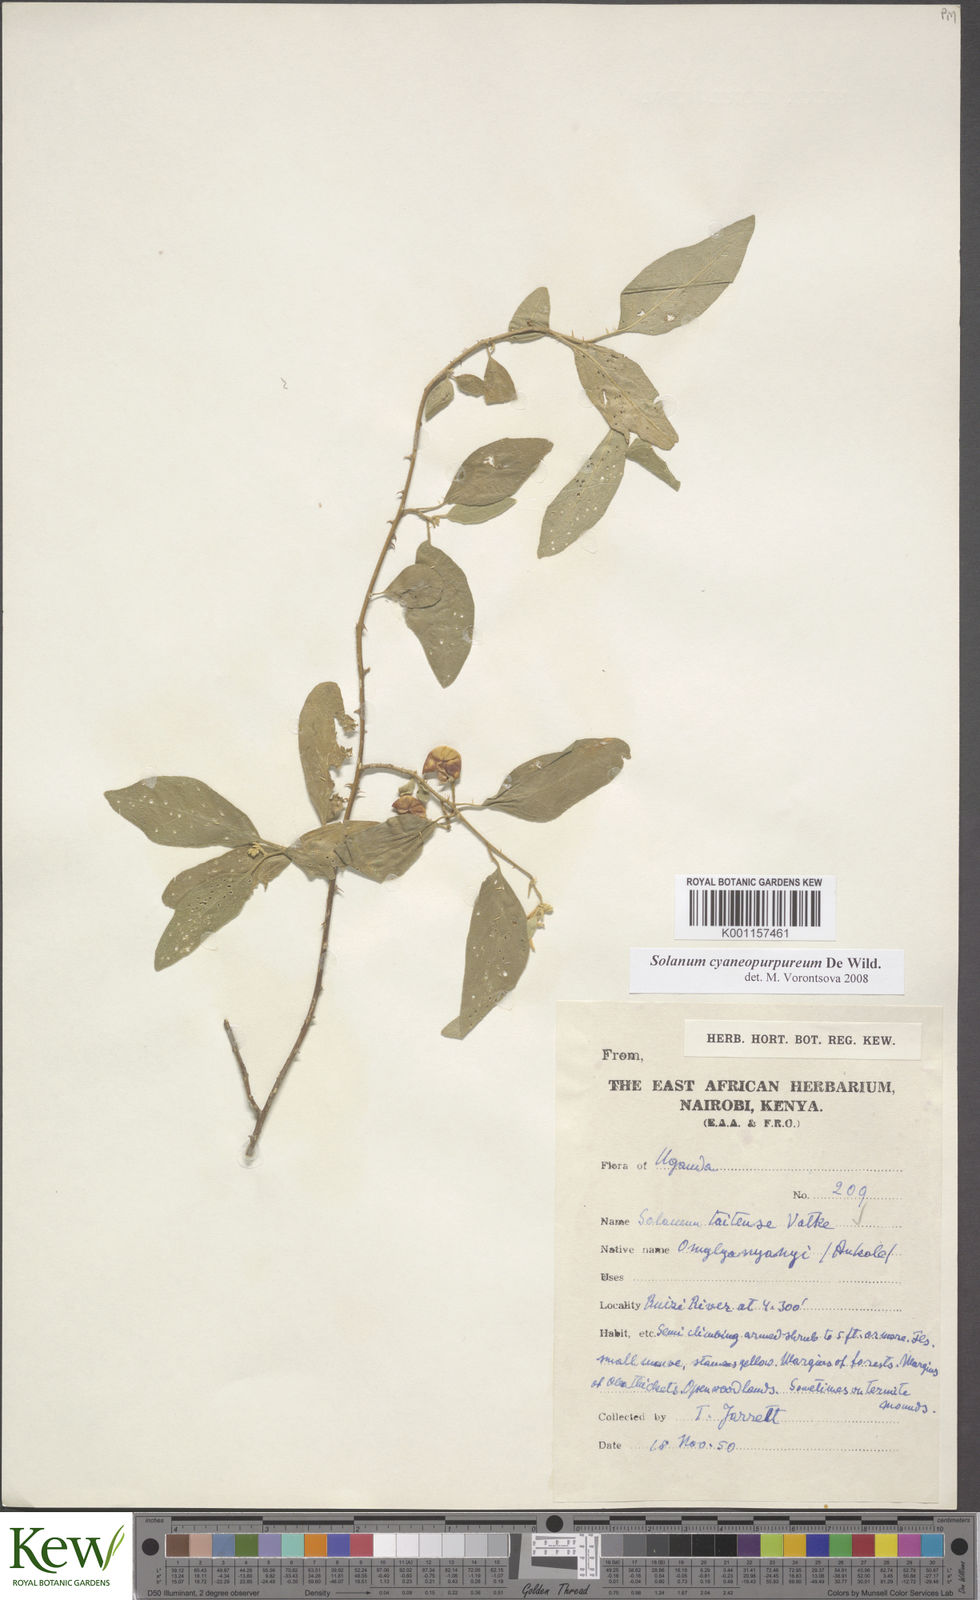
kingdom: Plantae
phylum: Tracheophyta
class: Magnoliopsida
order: Solanales
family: Solanaceae
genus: Solanum
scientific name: Solanum cyaneopurpureum
